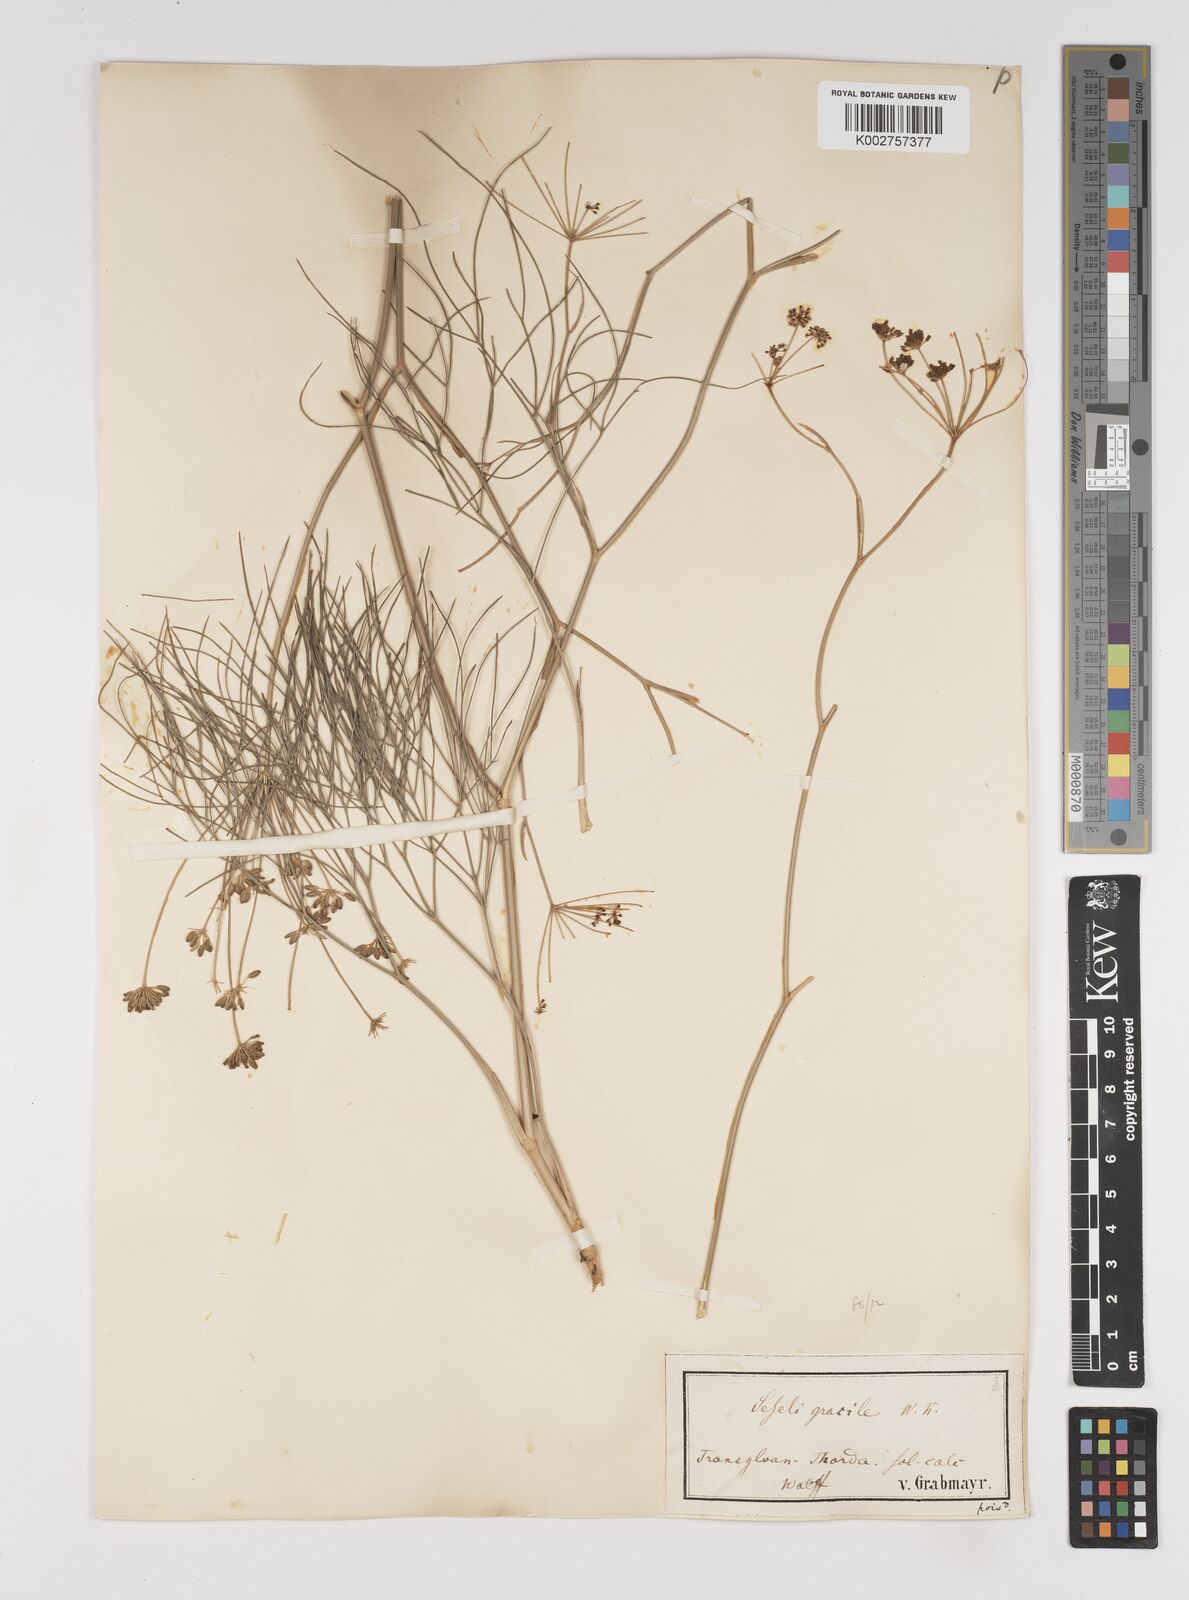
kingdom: Plantae
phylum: Tracheophyta
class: Magnoliopsida
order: Apiales
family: Apiaceae
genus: Seseli
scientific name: Seseli gracile
